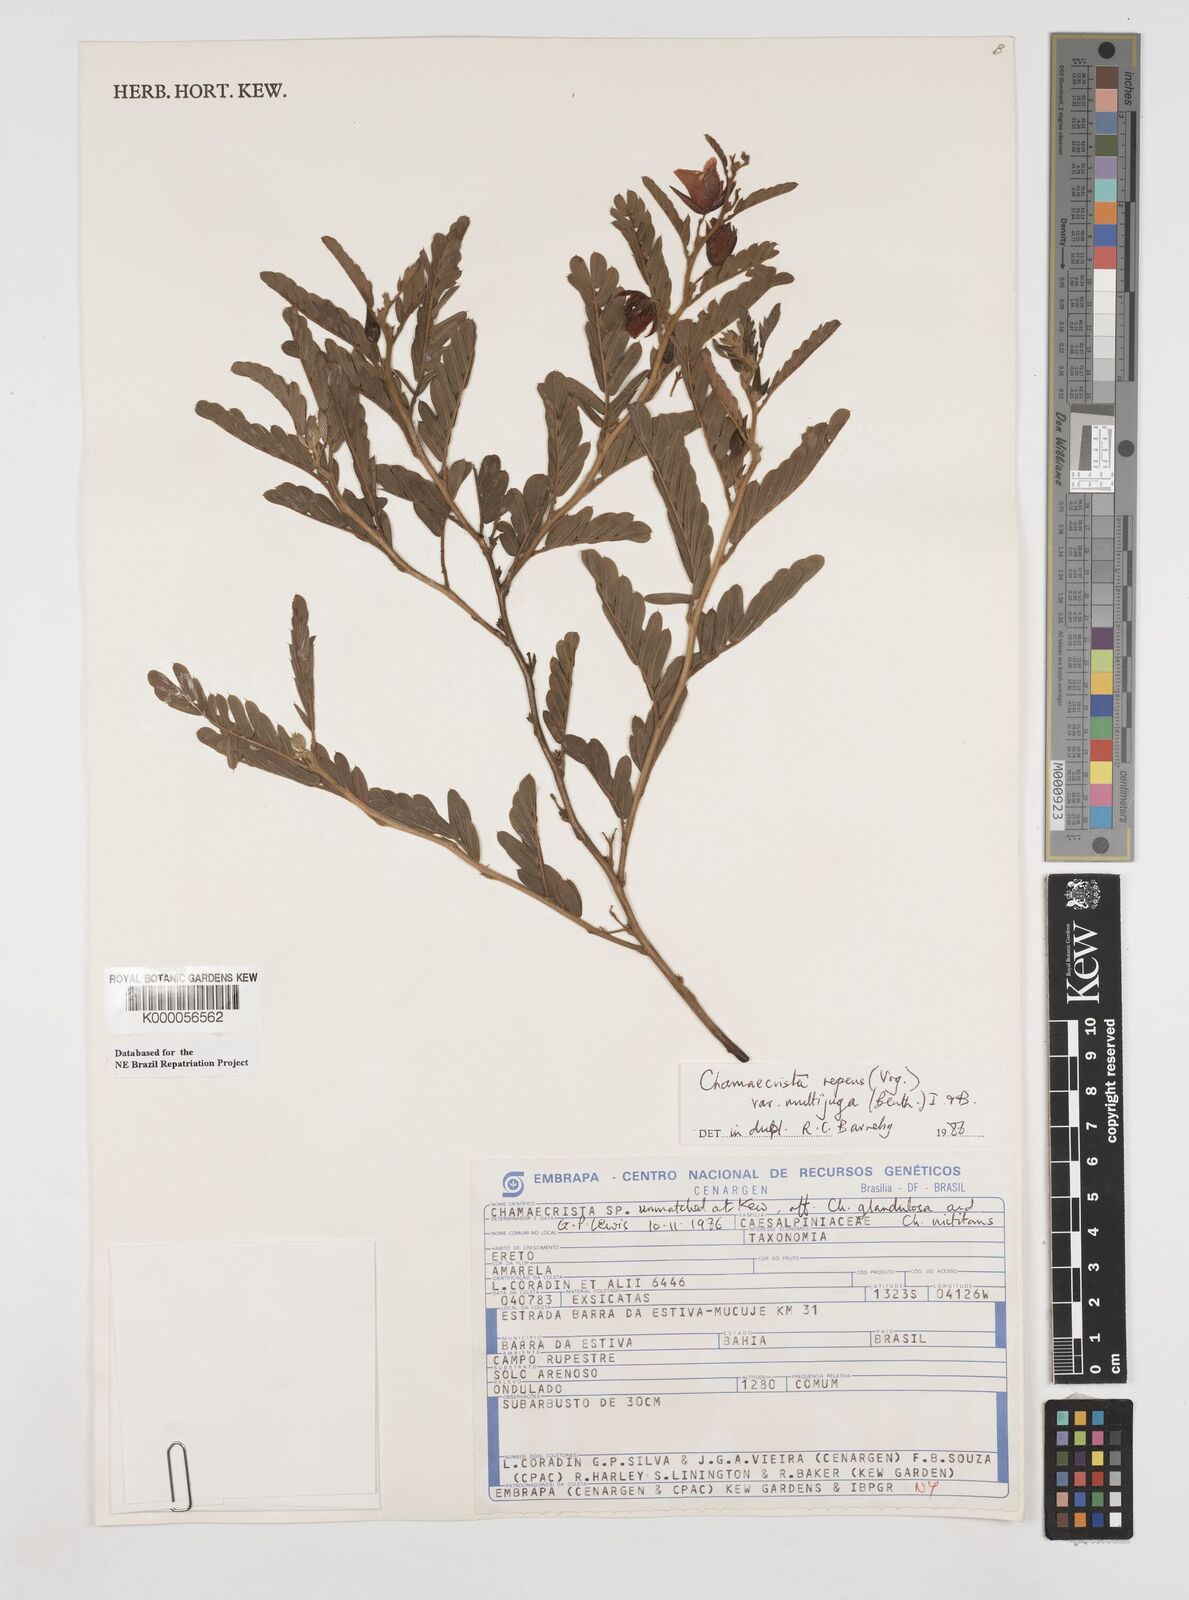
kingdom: Plantae
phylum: Tracheophyta
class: Magnoliopsida
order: Fabales
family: Fabaceae
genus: Chamaecrista
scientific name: Chamaecrista repens
